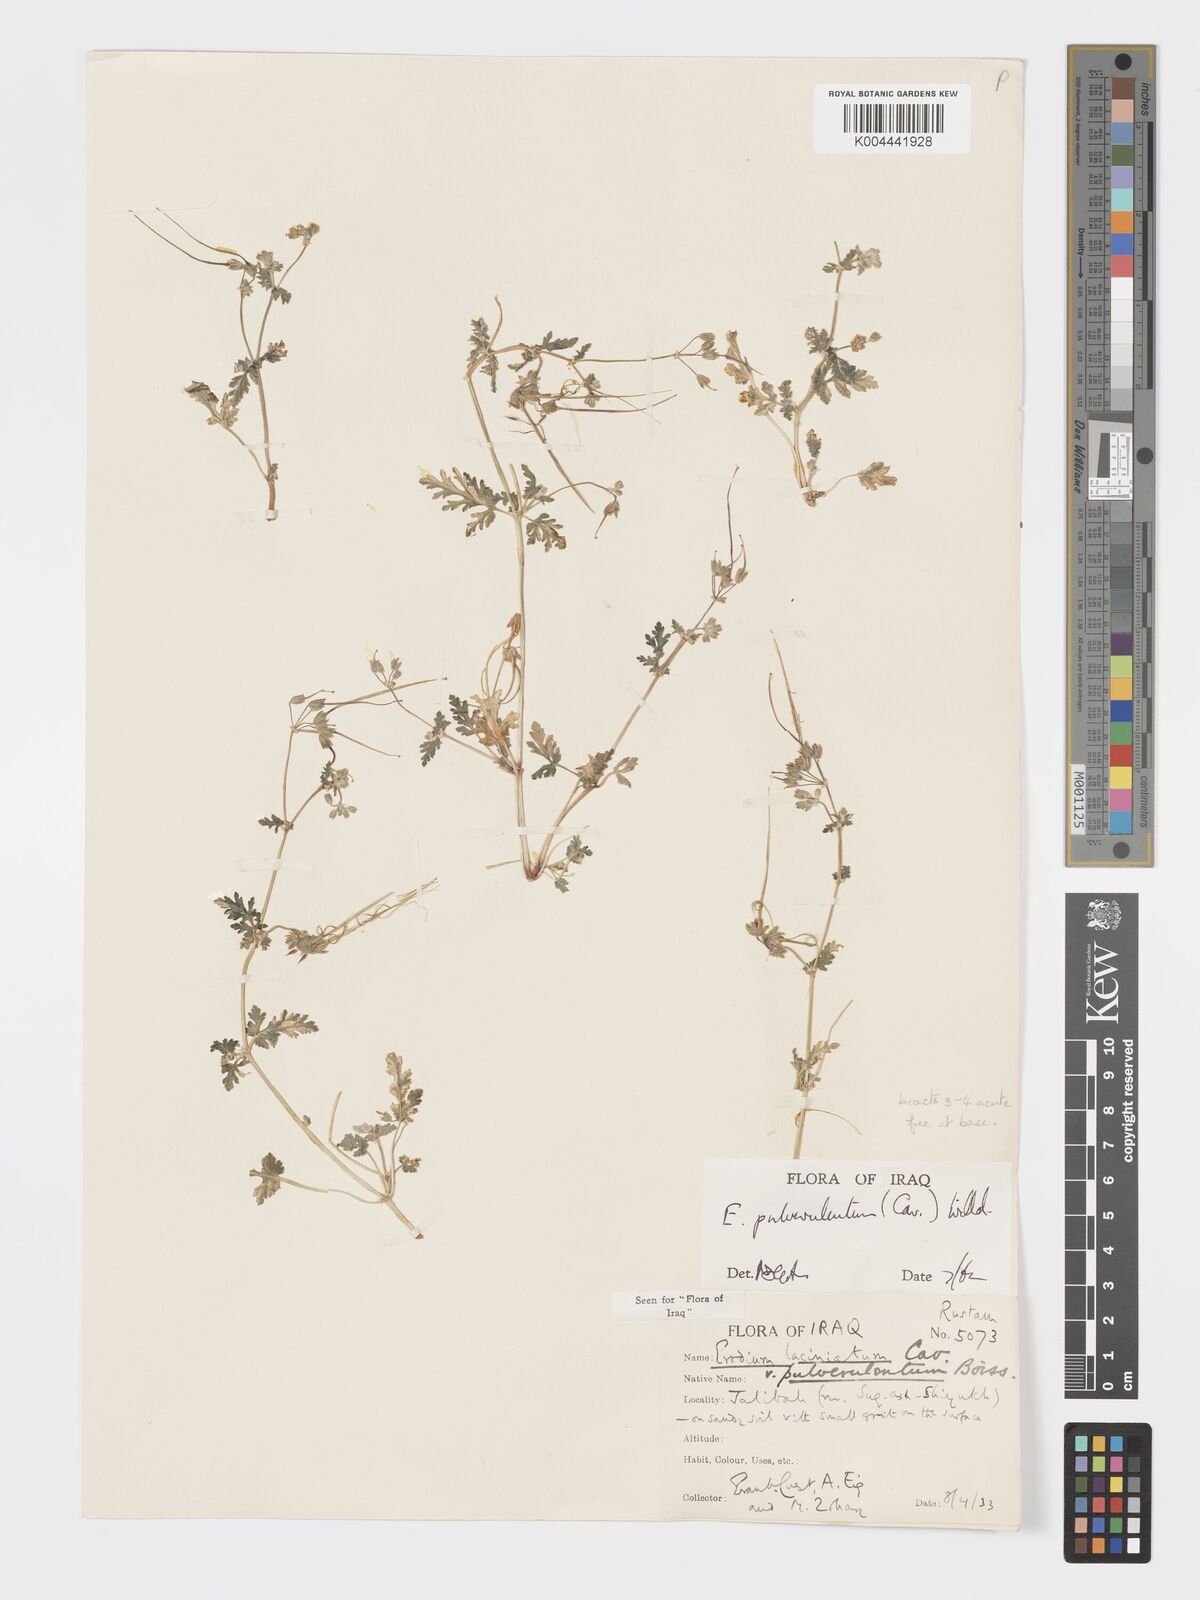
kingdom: Plantae
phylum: Tracheophyta
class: Magnoliopsida
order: Geraniales
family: Geraniaceae
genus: Erodium
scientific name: Erodium laciniatum
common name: Cutleaf stork's bill
